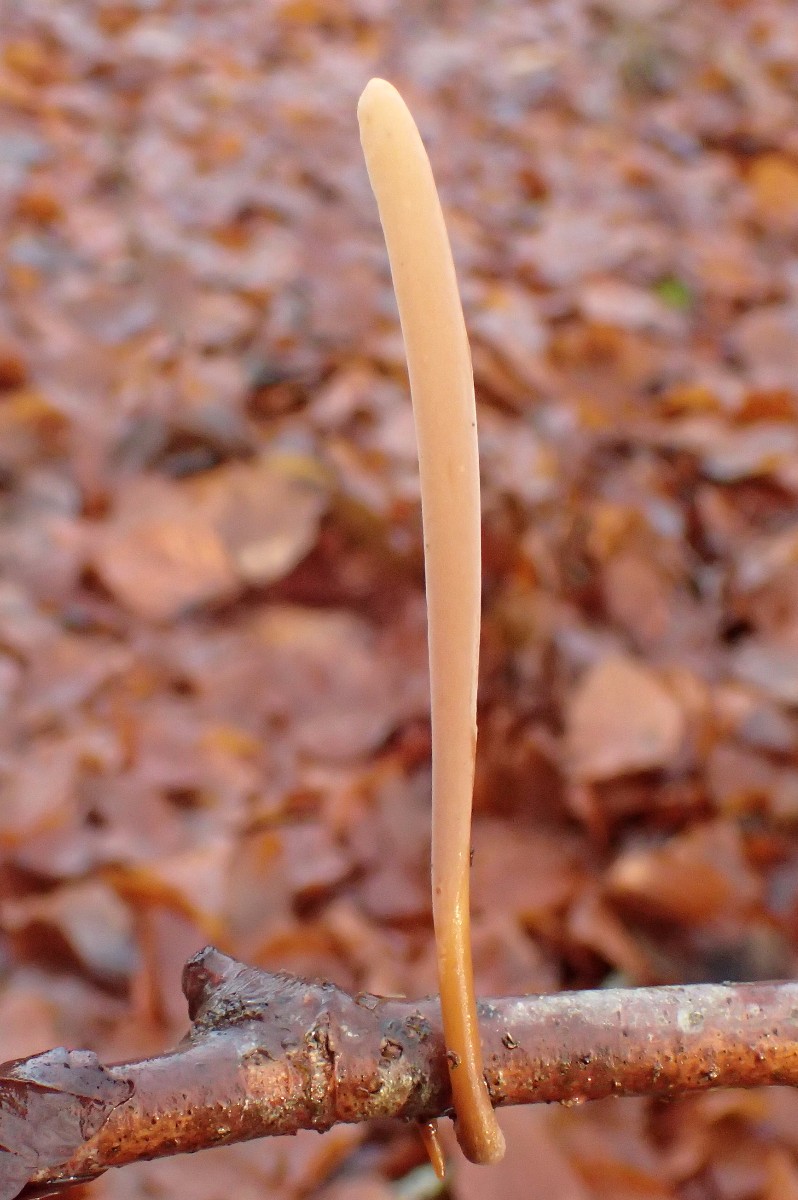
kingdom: Fungi
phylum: Basidiomycota
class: Agaricomycetes
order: Agaricales
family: Typhulaceae
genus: Typhula
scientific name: Typhula fistulosa
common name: pibet rørkølle
